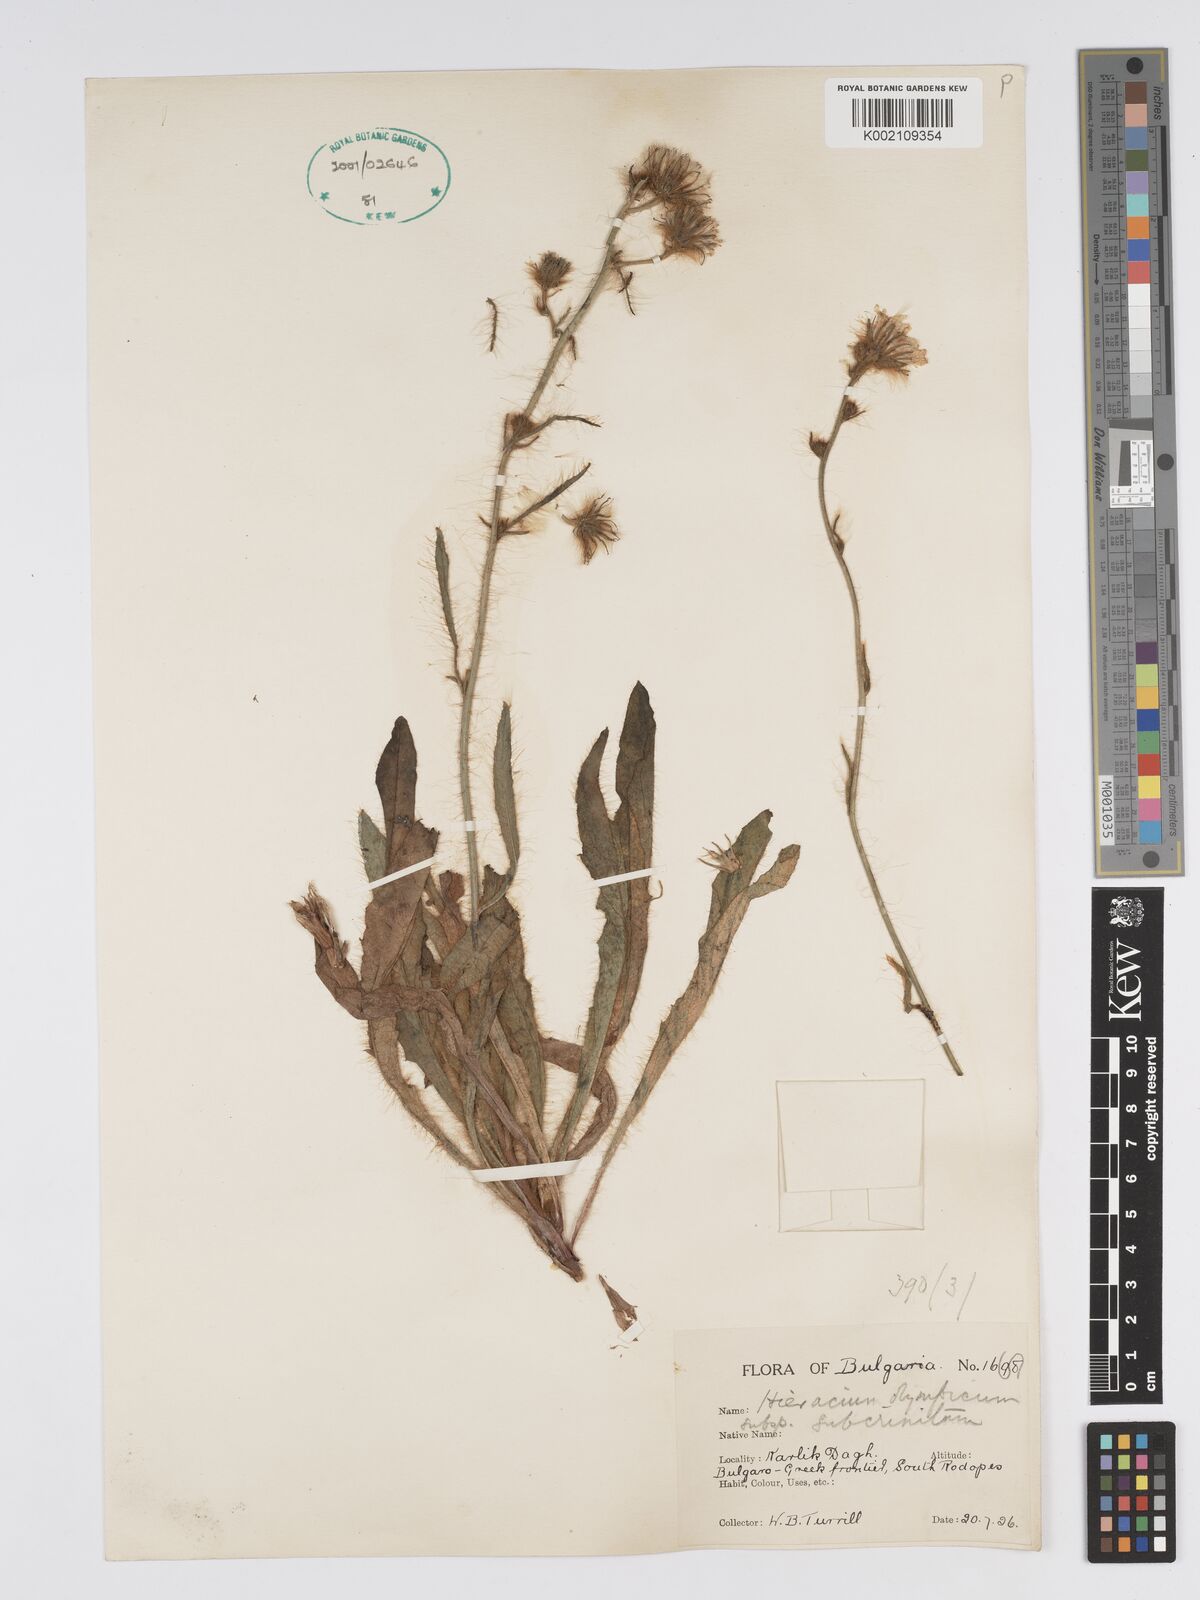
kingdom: Plantae
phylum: Tracheophyta
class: Magnoliopsida
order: Asterales
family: Asteraceae
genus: Hieracium
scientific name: Hieracium olympicum
